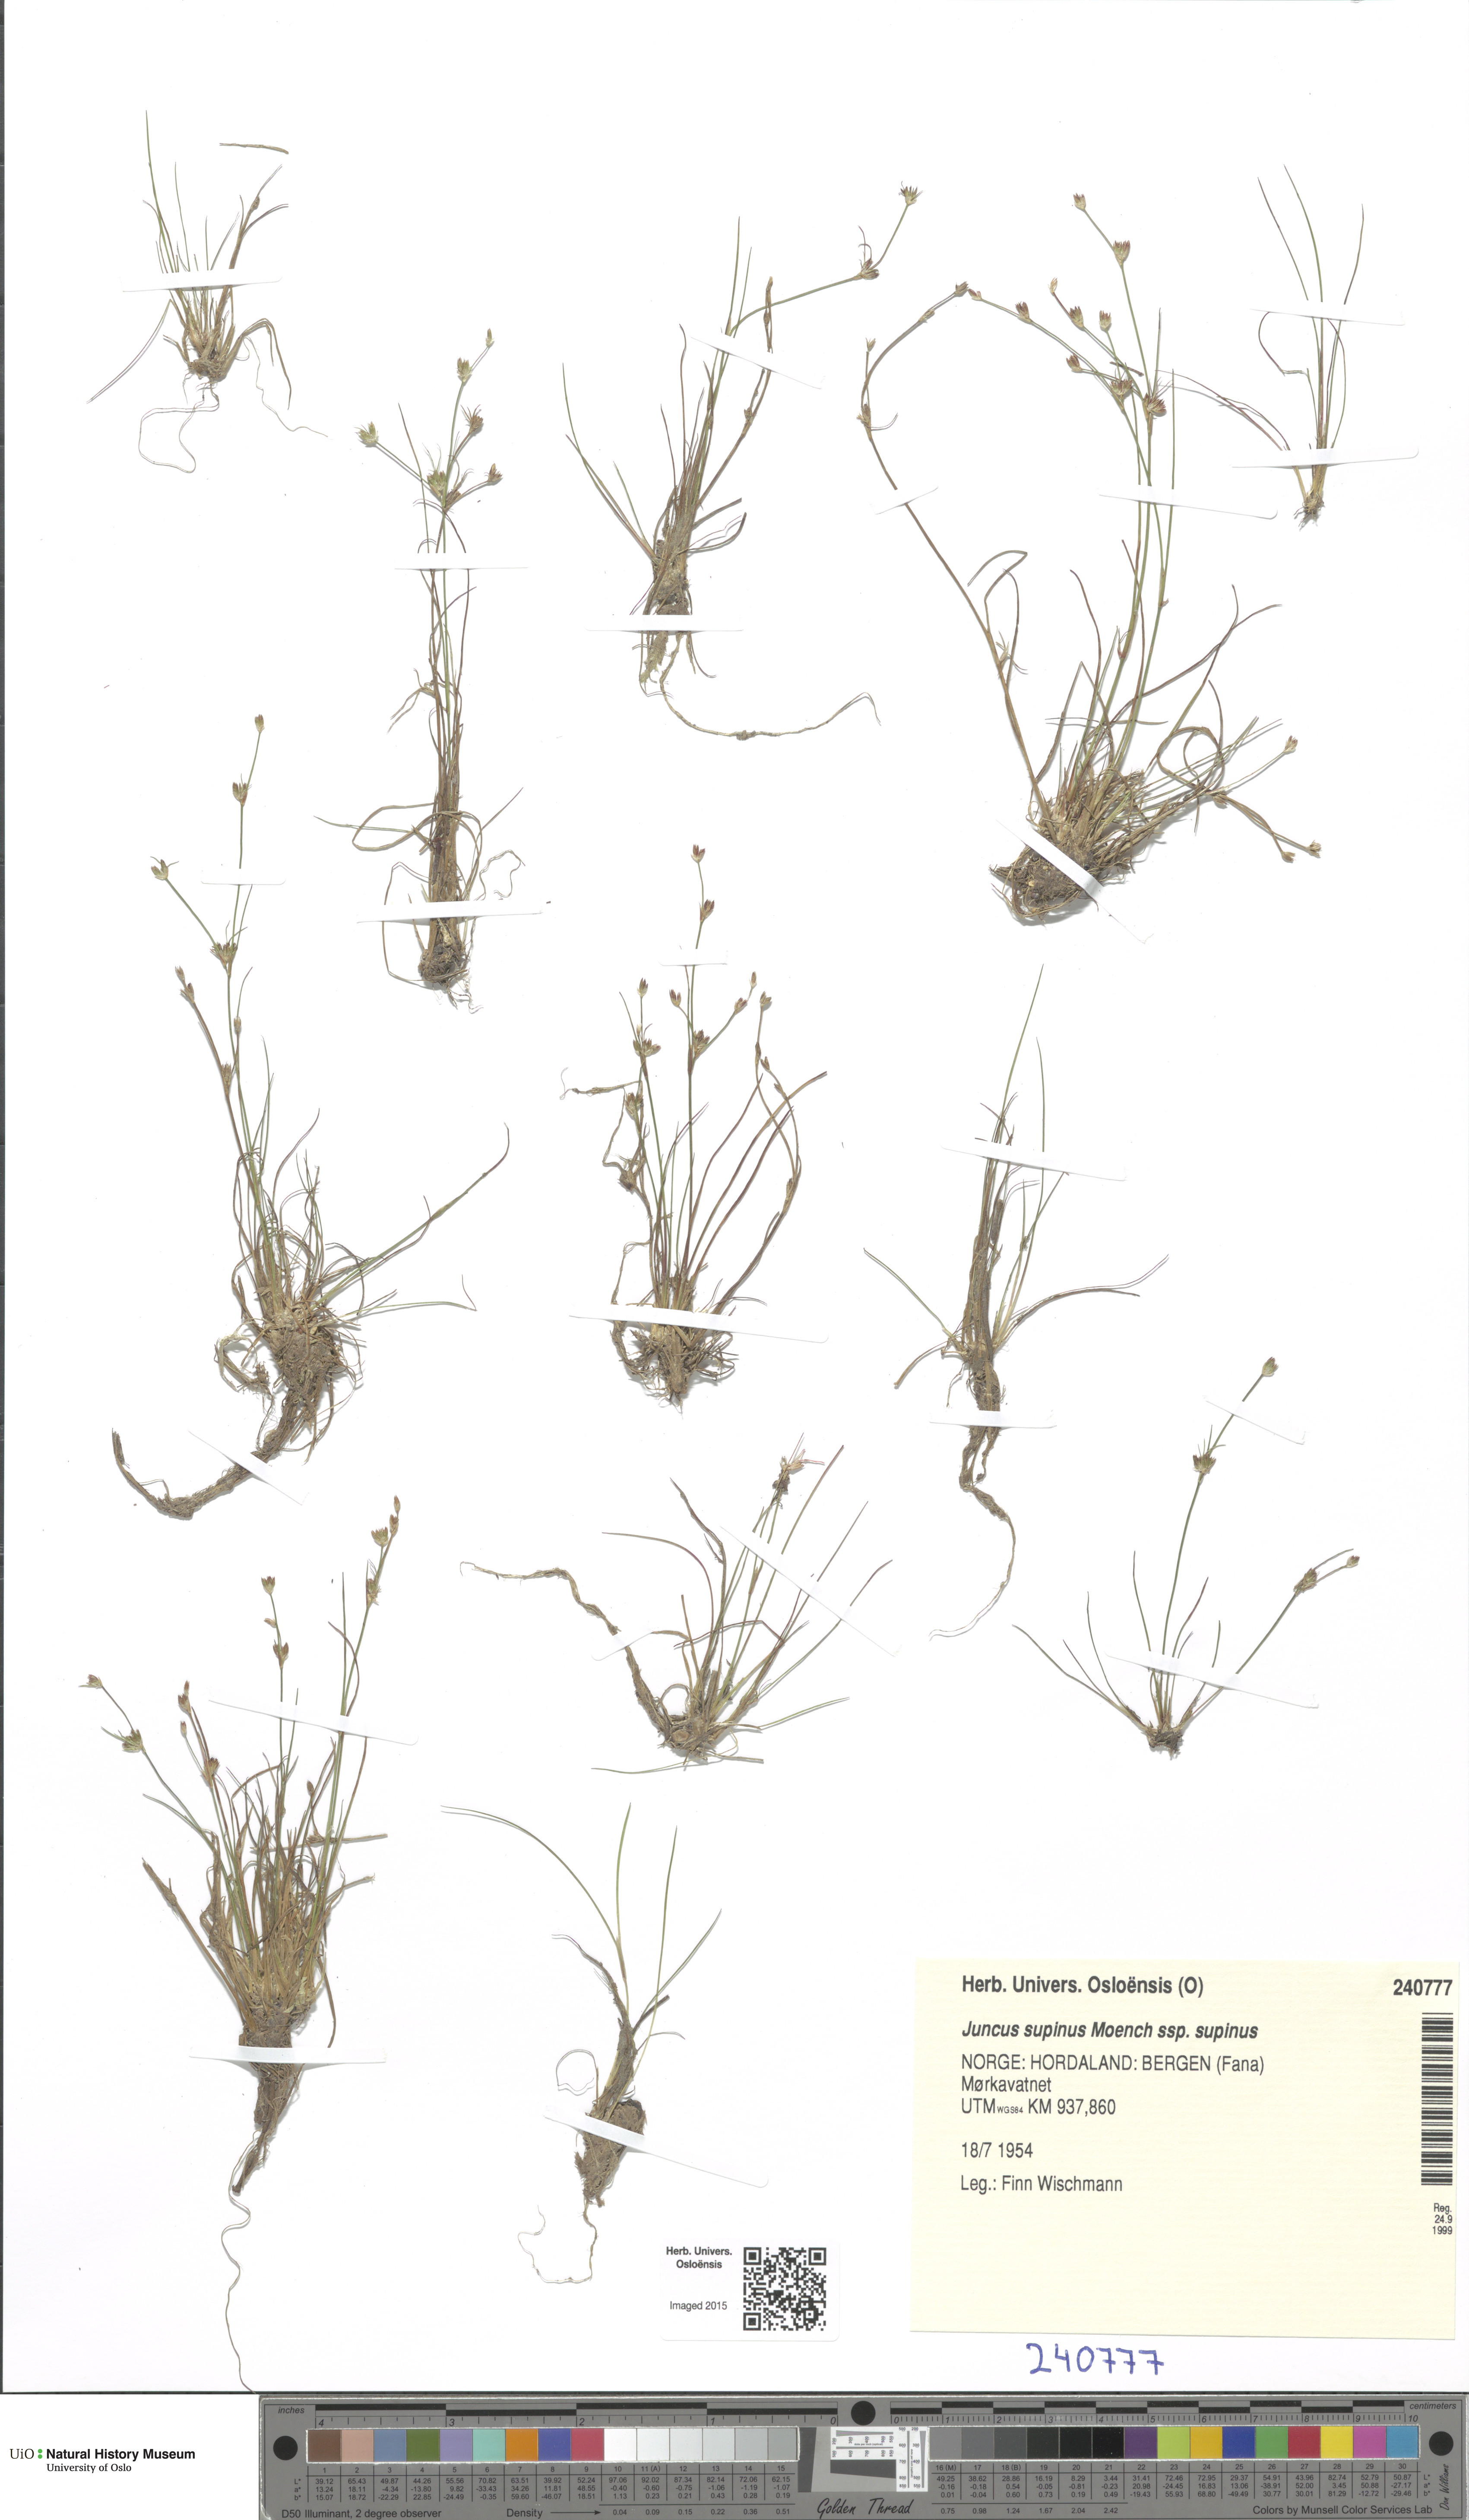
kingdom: Plantae
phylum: Tracheophyta
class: Liliopsida
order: Poales
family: Juncaceae
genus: Juncus
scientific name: Juncus bulbosus
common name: Bulbous rush
